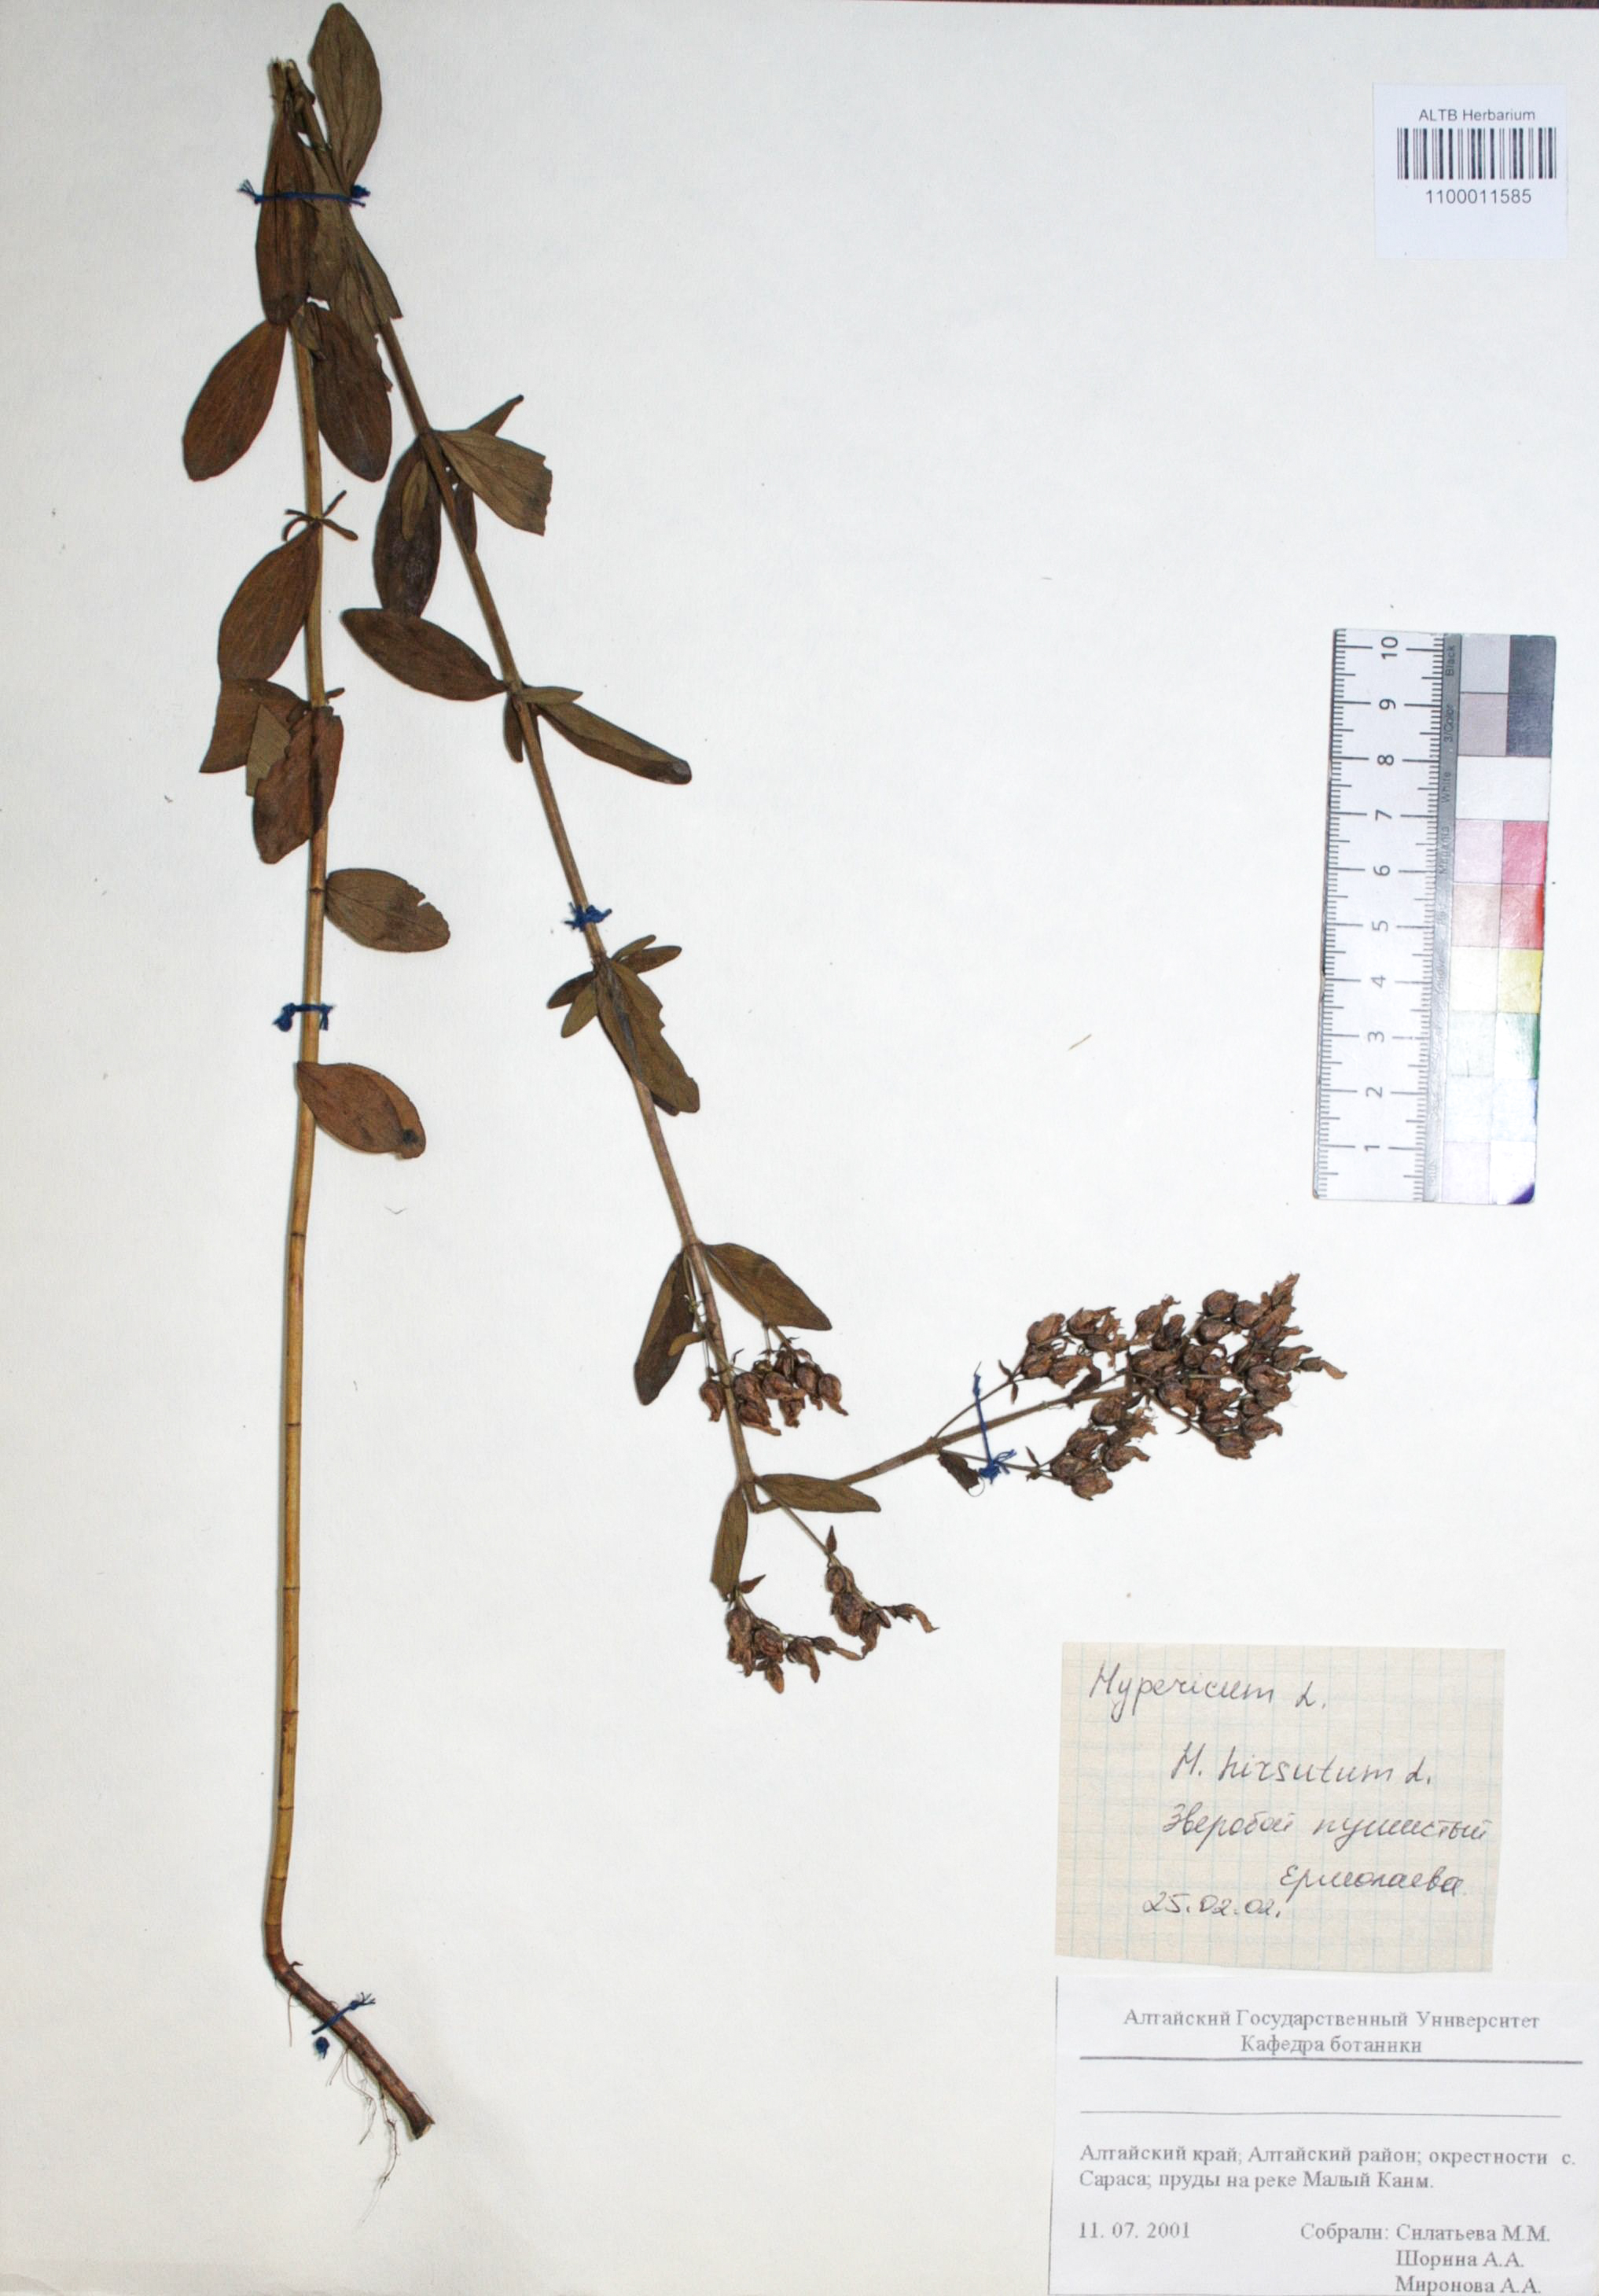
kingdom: Plantae
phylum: Tracheophyta
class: Magnoliopsida
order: Malpighiales
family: Hypericaceae
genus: Hypericum
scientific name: Hypericum hirsutum
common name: Hairy st. john's-wort
